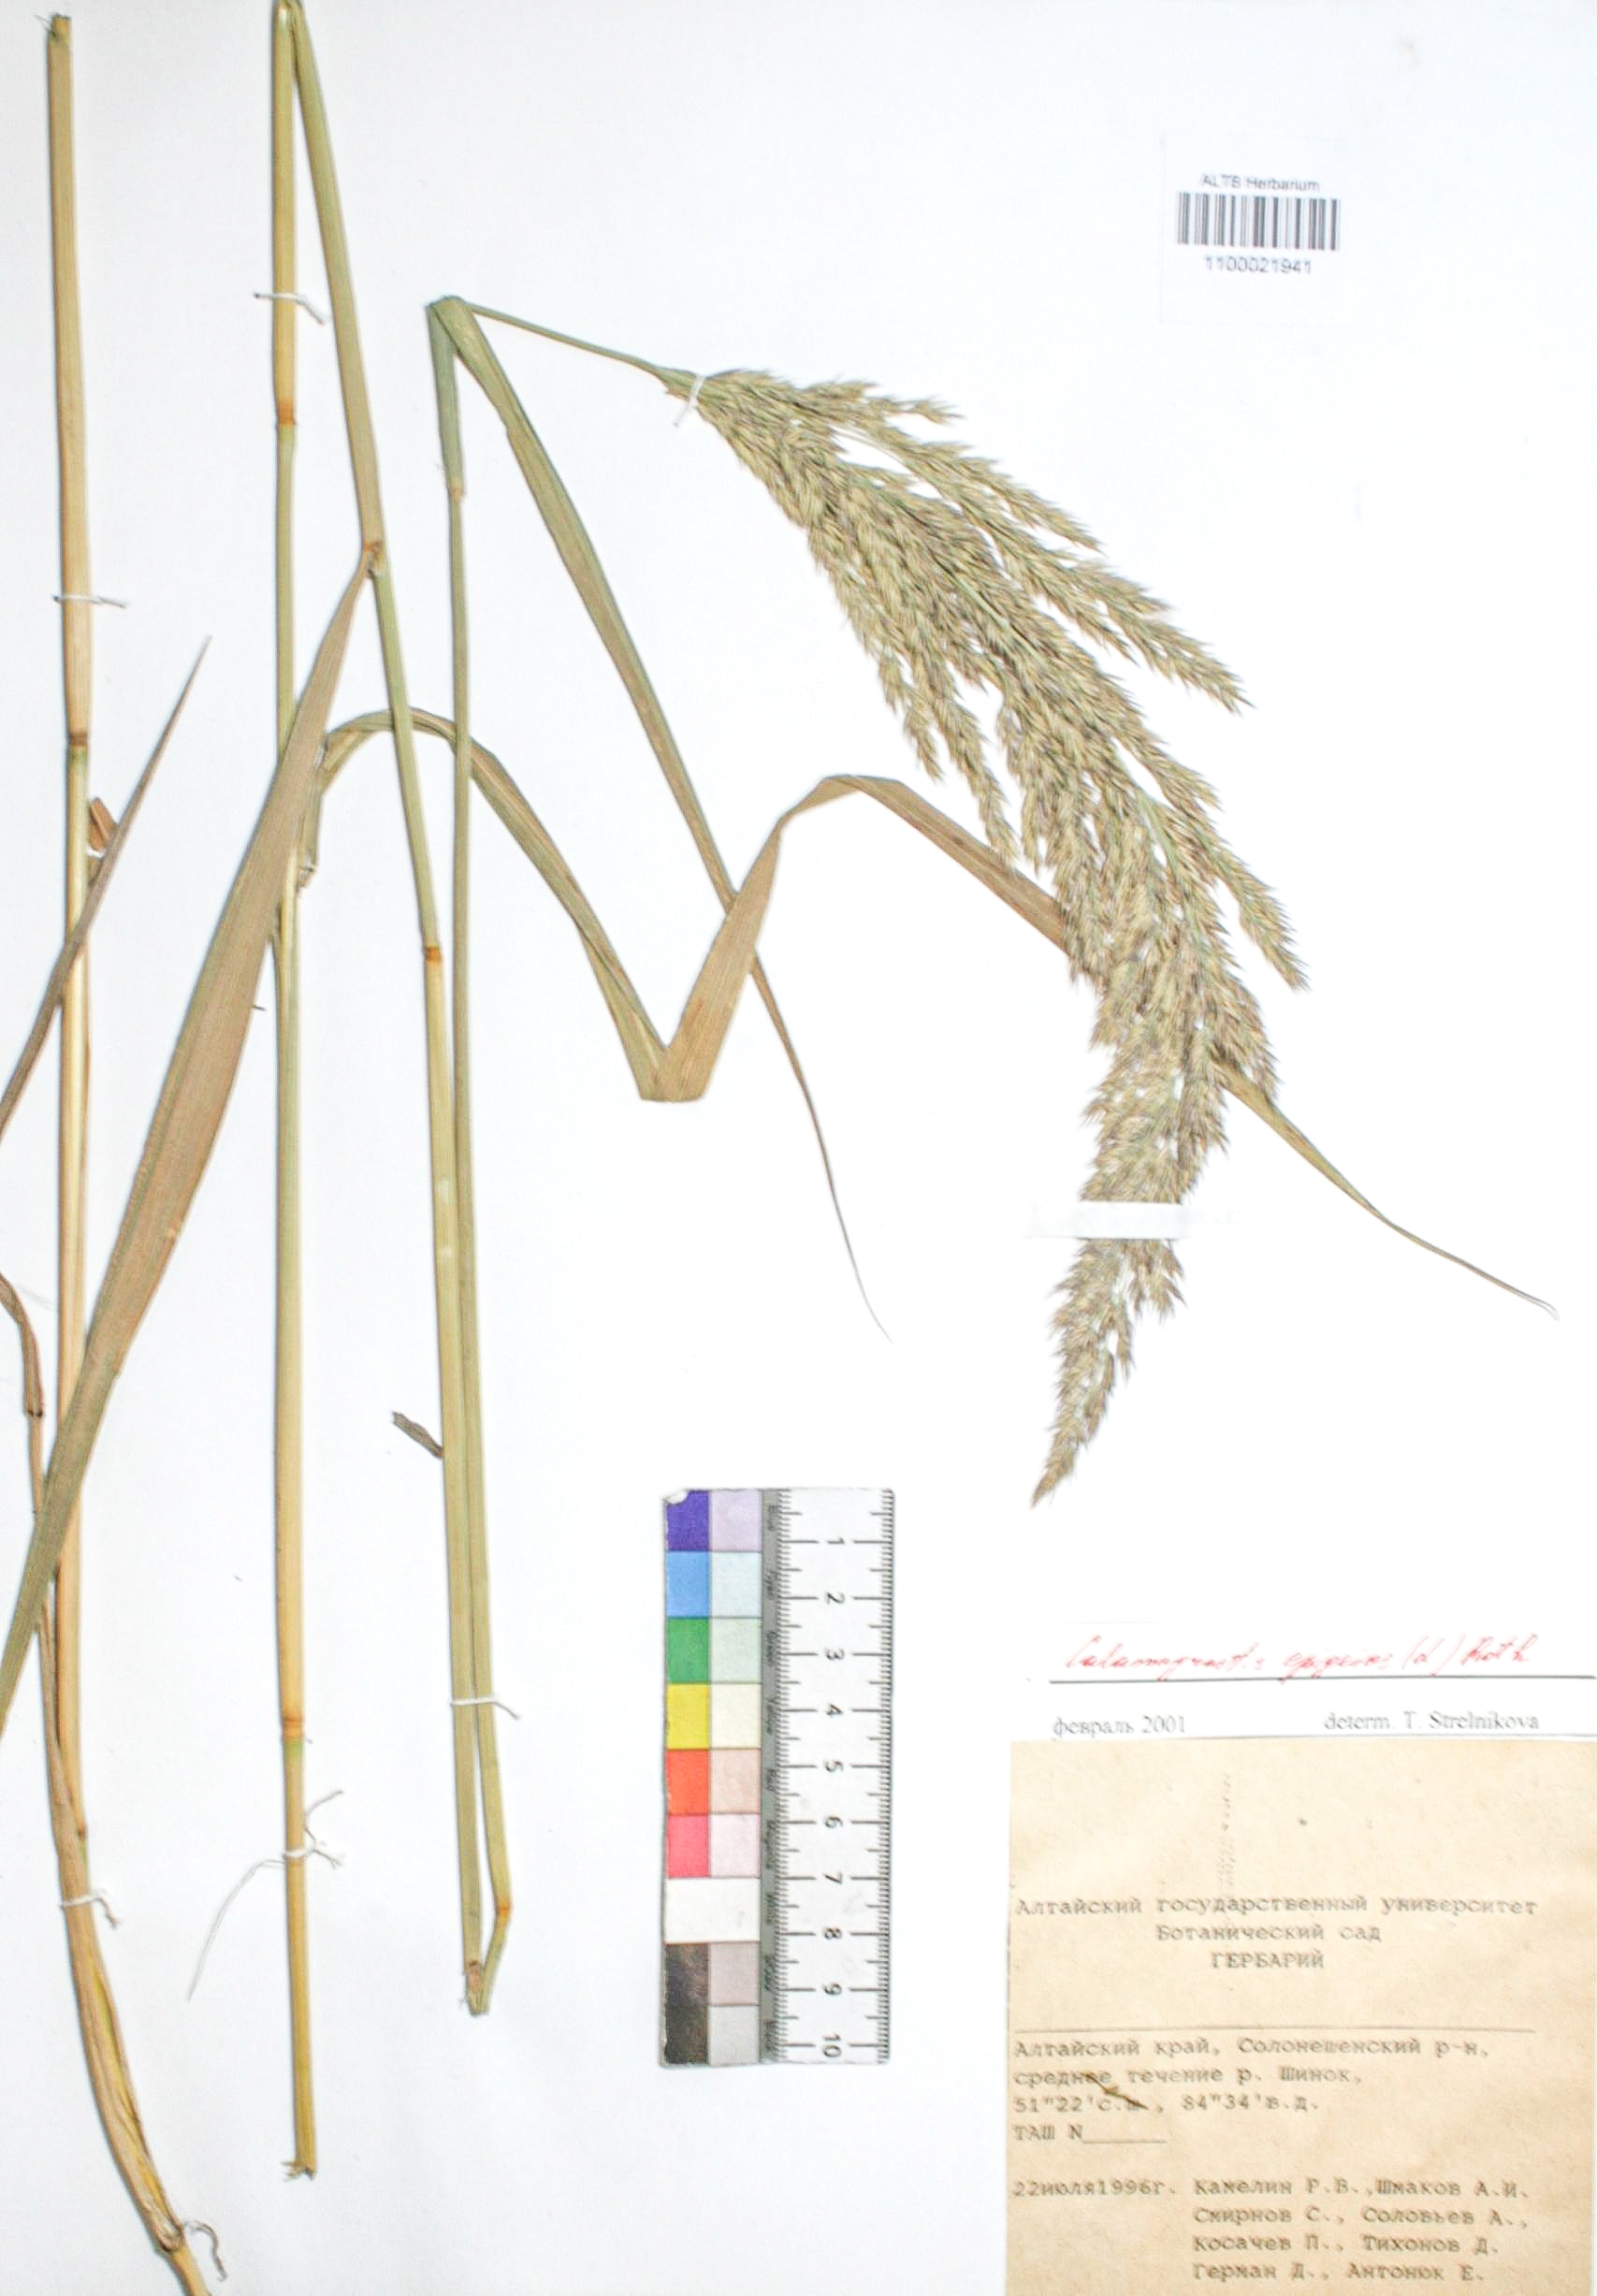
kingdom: Plantae
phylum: Tracheophyta
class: Liliopsida
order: Poales
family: Poaceae
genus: Calamagrostis
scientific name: Calamagrostis epigejos
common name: Wood small-reed
